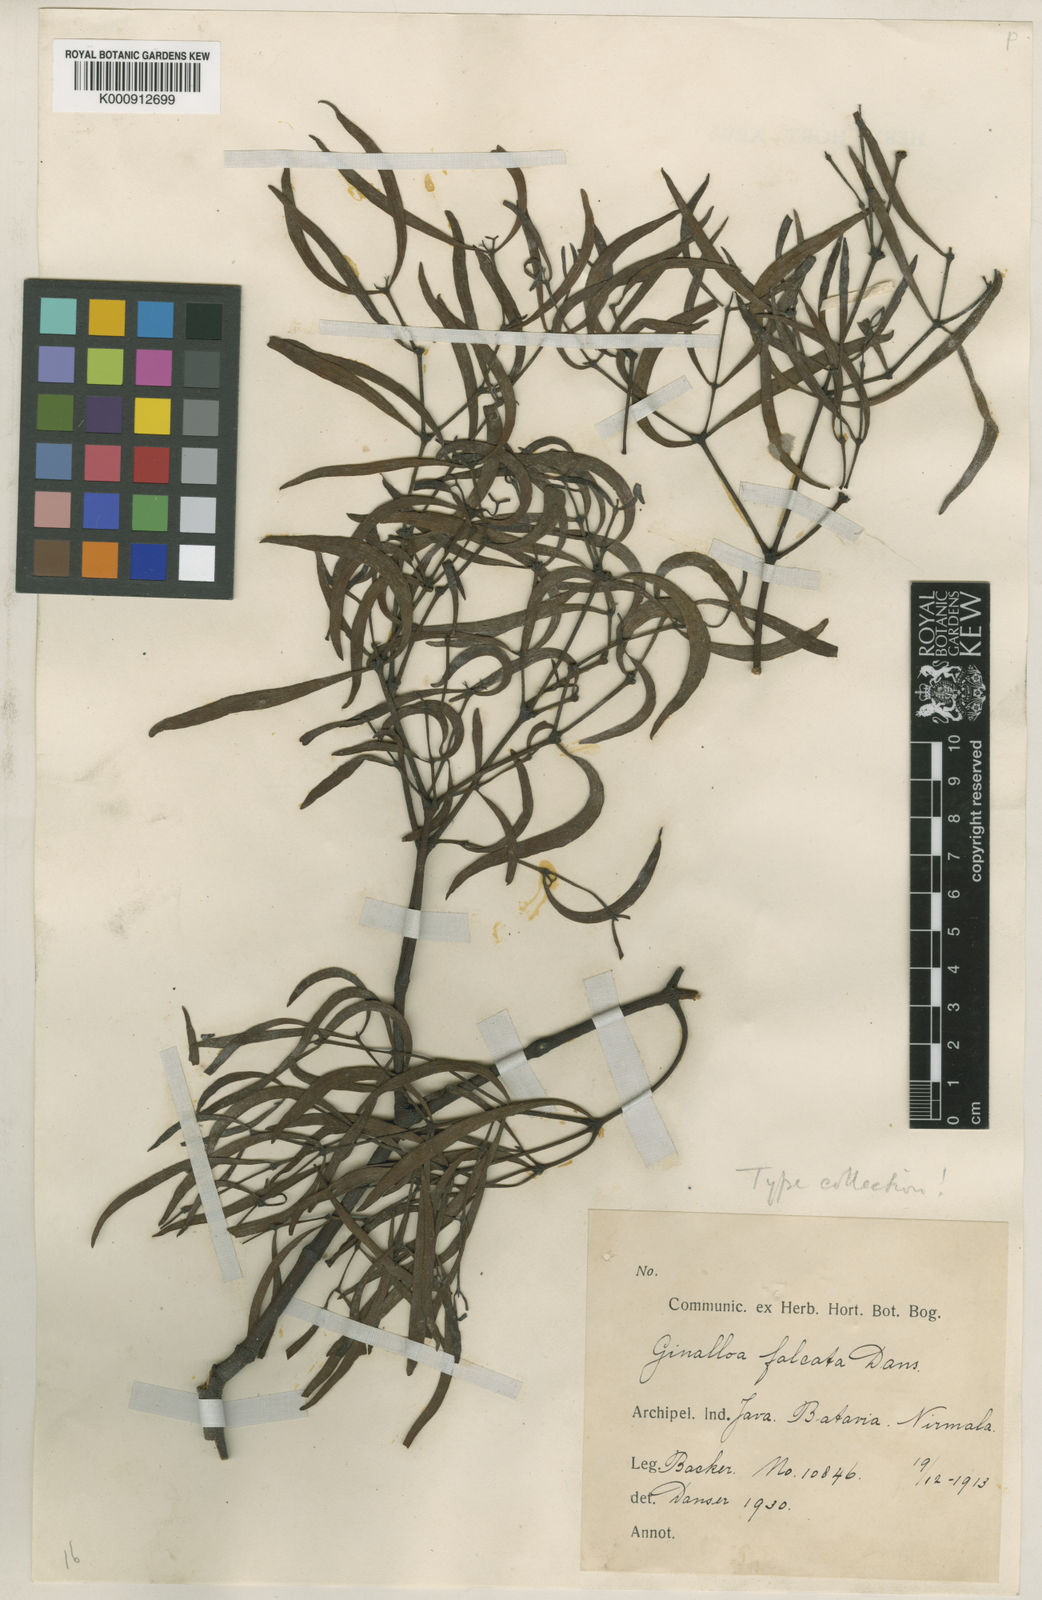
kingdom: Plantae
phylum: Tracheophyta
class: Magnoliopsida
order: Santalales
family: Viscaceae
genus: Viscum
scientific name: Viscum scurruloideum
